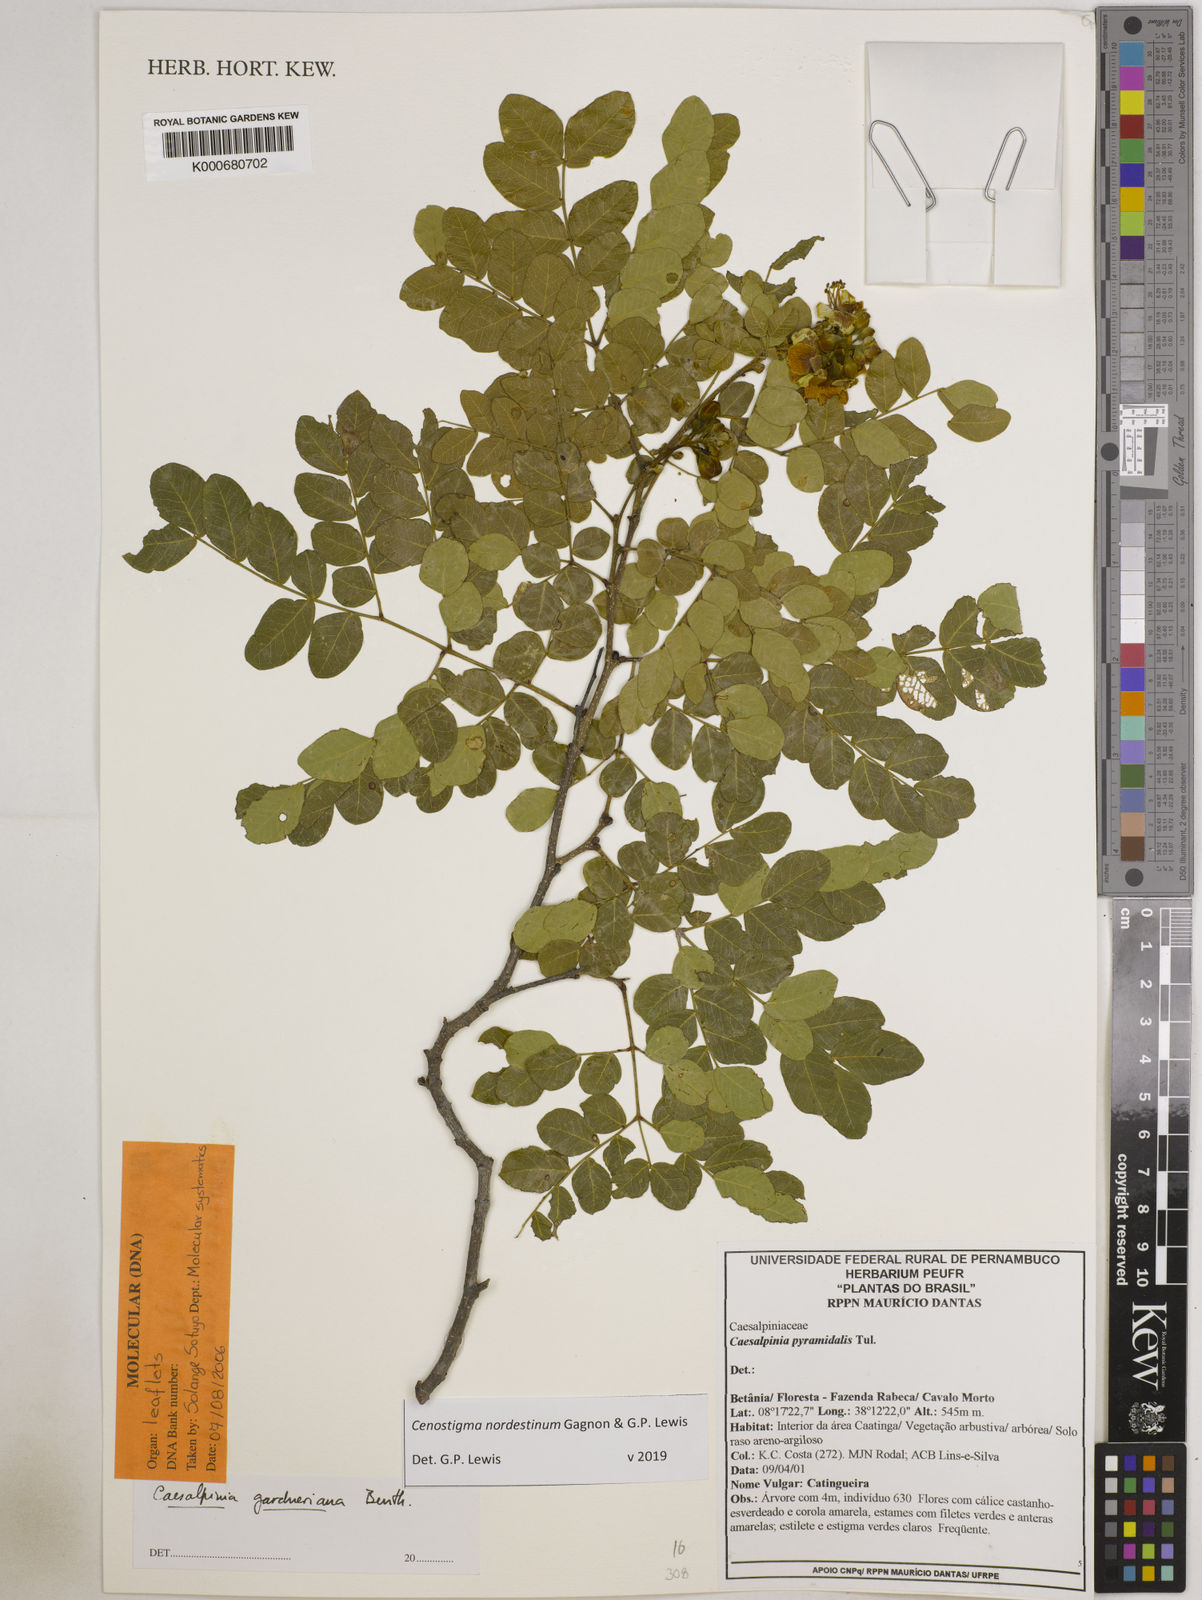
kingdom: Plantae
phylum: Tracheophyta
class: Magnoliopsida
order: Fabales
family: Fabaceae
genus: Cenostigma
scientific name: Cenostigma nordestinum
